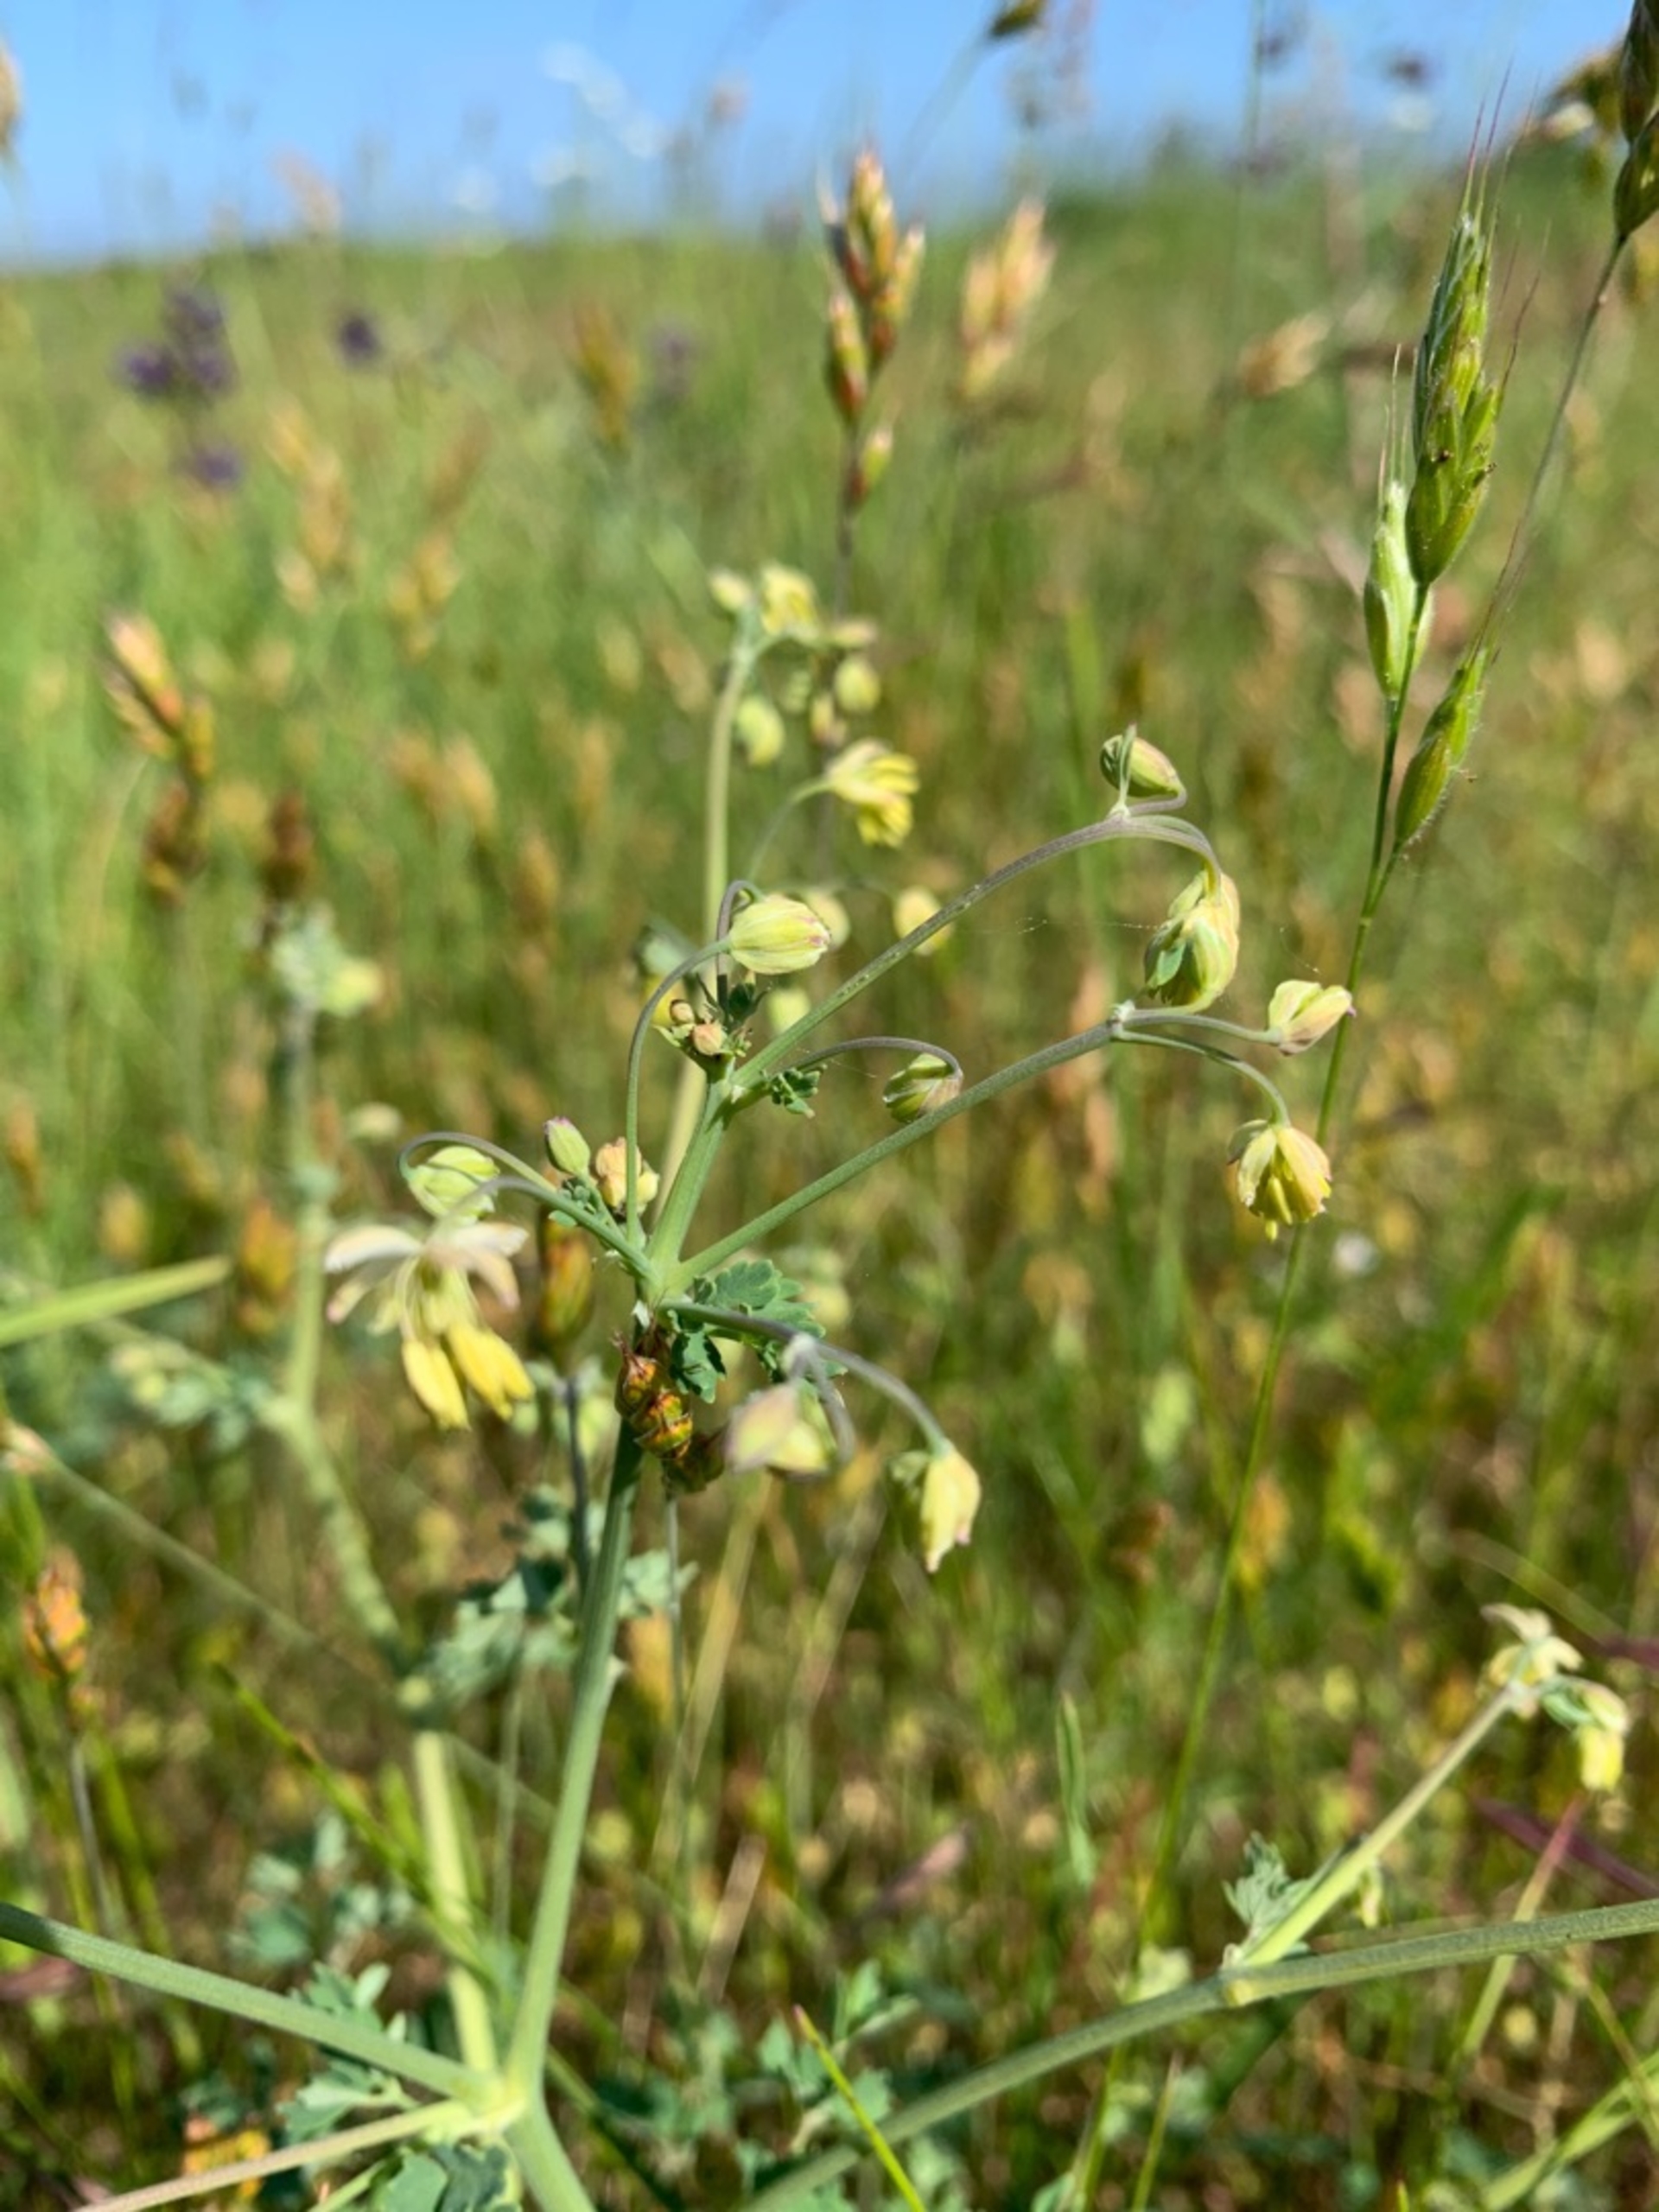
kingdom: Plantae
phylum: Tracheophyta
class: Magnoliopsida
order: Ranunculales
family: Ranunculaceae
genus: Thalictrum
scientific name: Thalictrum minus
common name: Sand-frøstjerne
